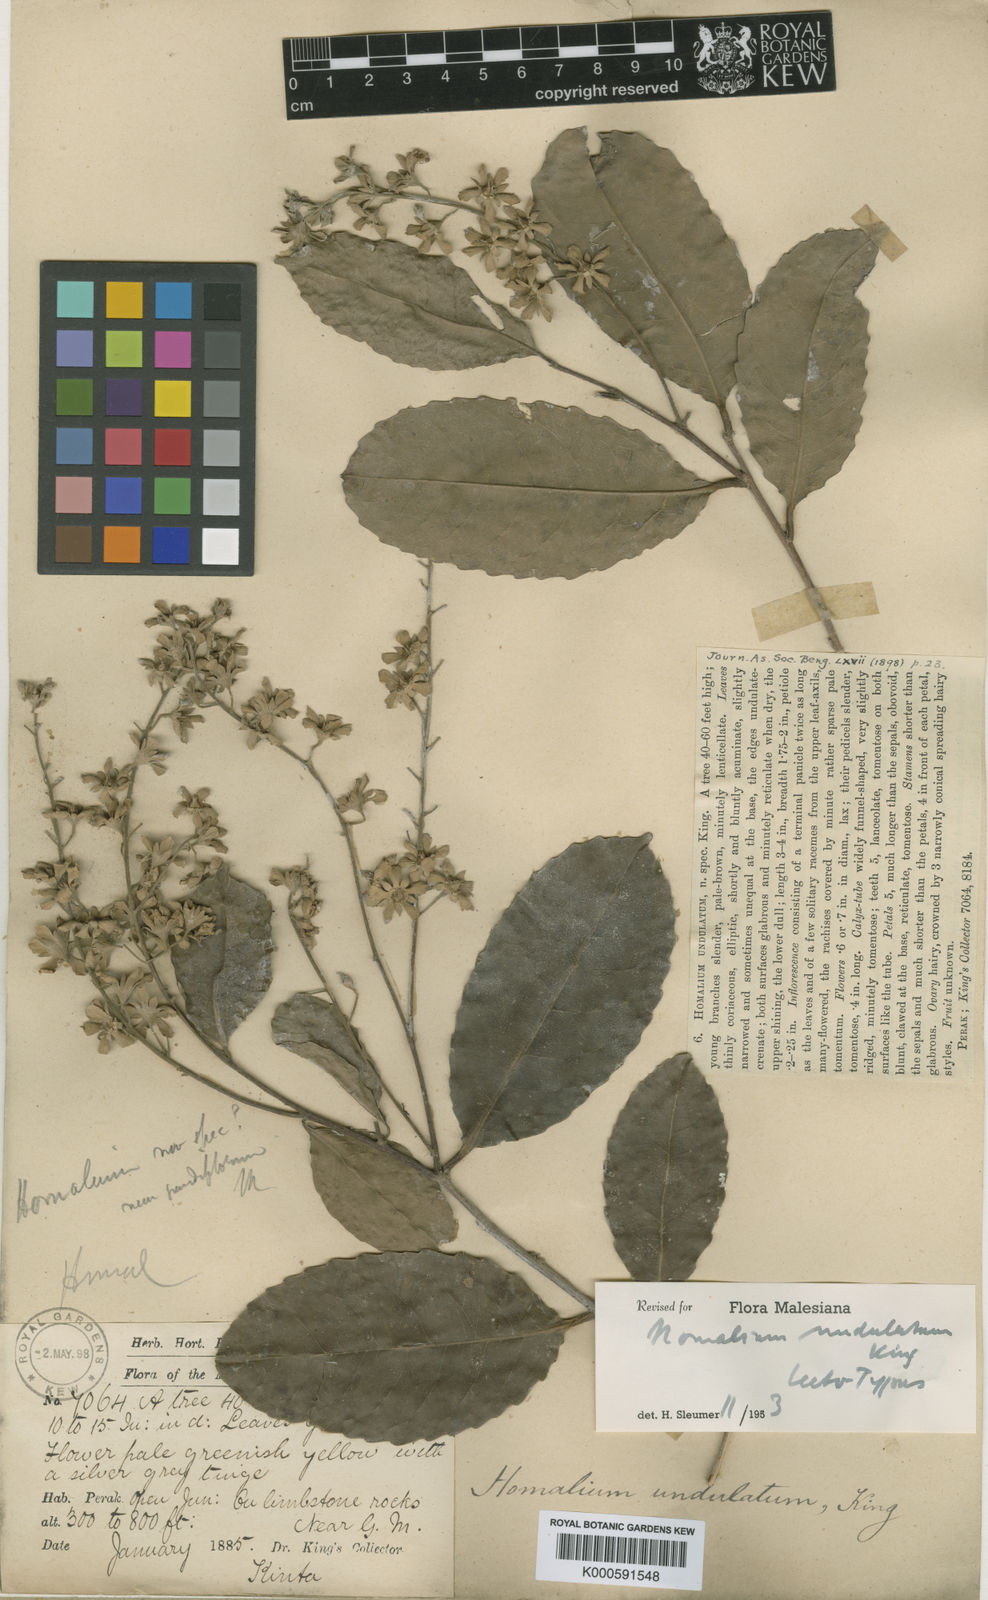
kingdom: Plantae
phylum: Tracheophyta
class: Magnoliopsida
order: Malpighiales
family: Salicaceae
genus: Homalium
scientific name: Homalium undulatum
